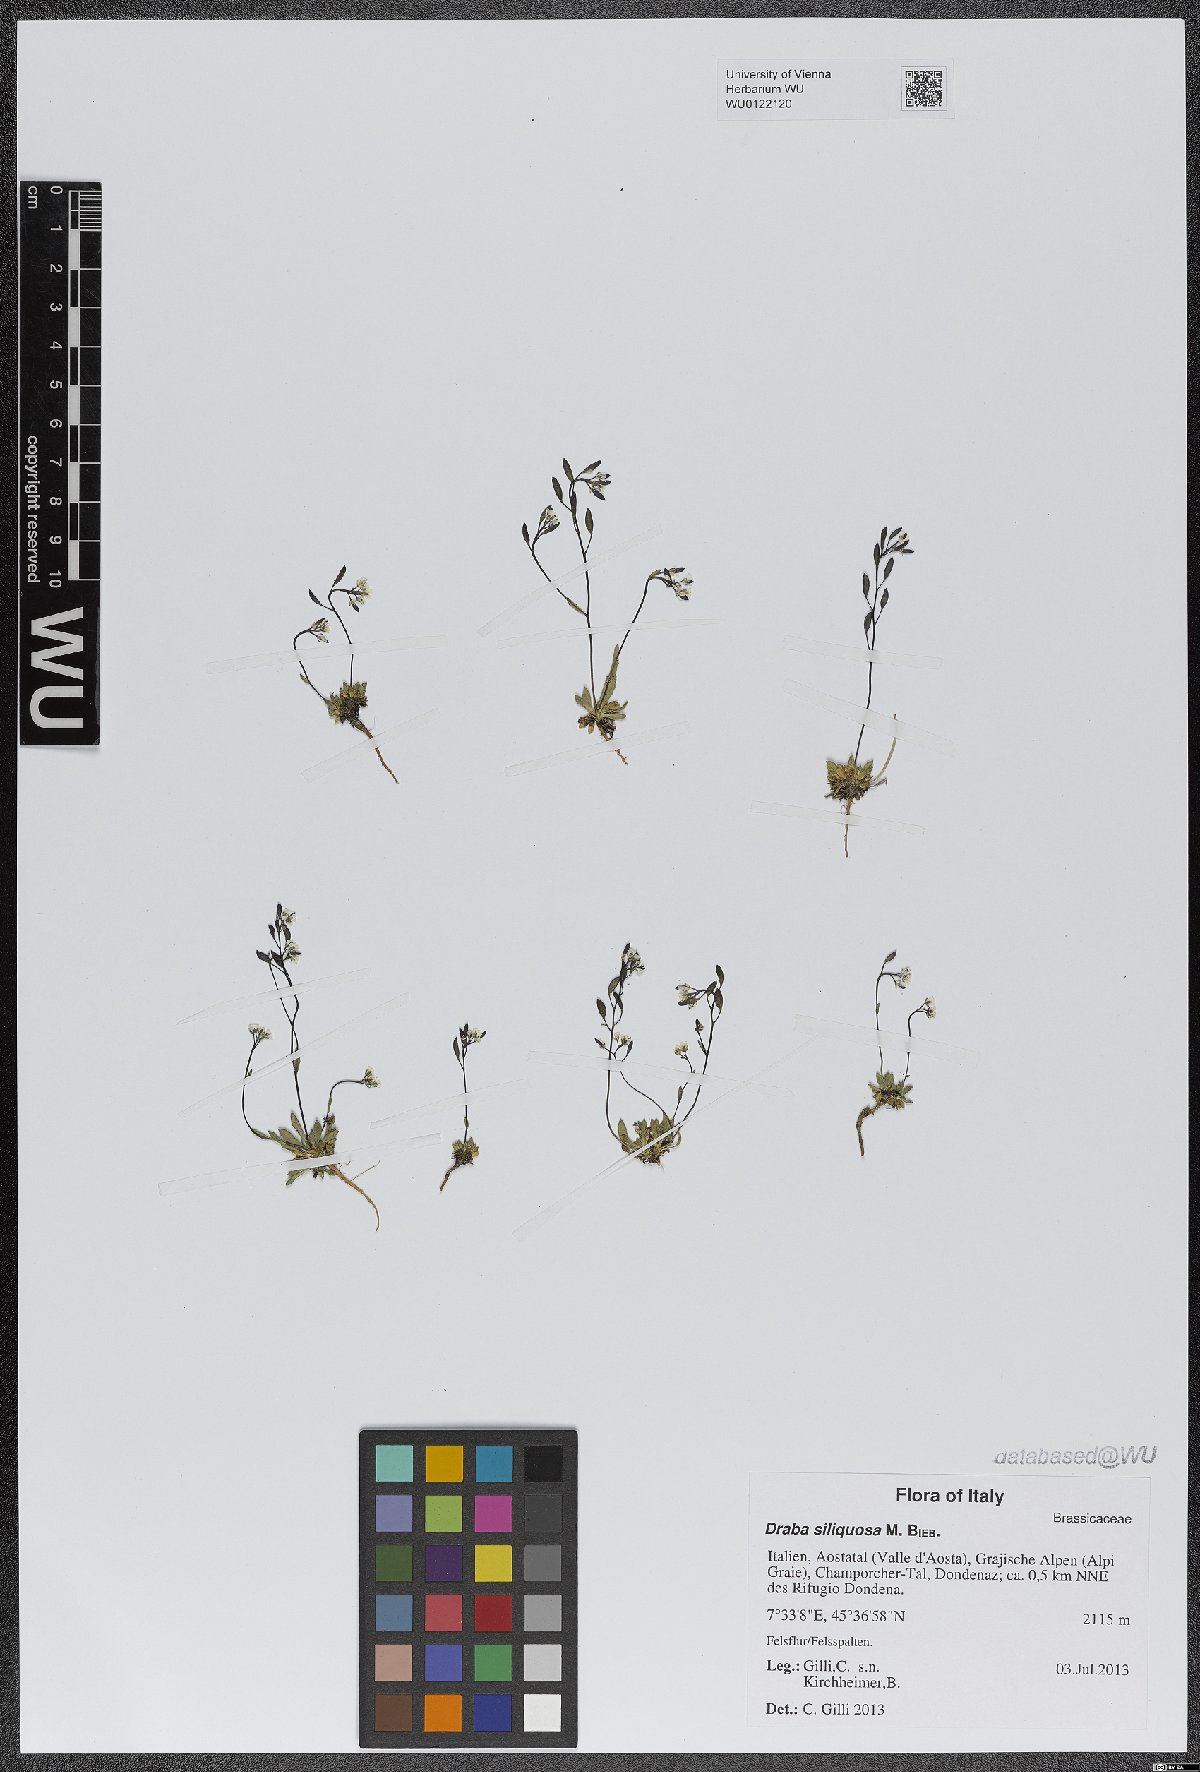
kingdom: Plantae
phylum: Tracheophyta
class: Magnoliopsida
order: Brassicales
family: Brassicaceae
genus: Draba
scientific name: Draba siliquosa
